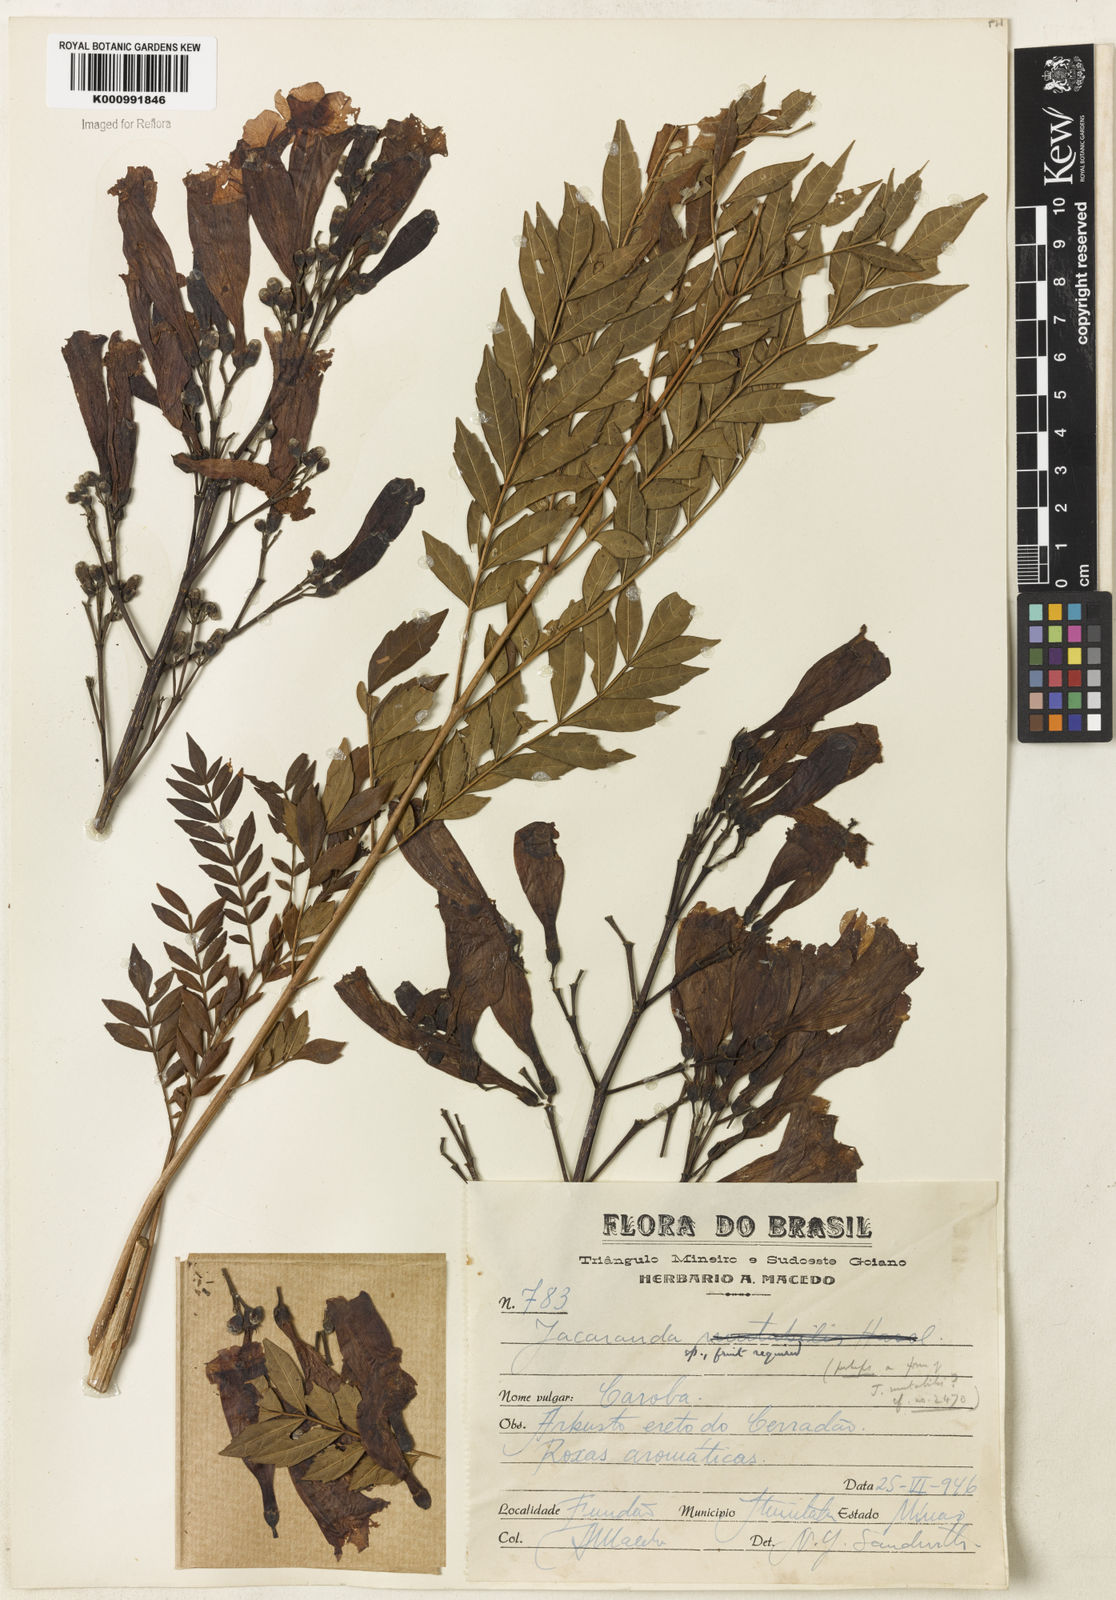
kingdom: Plantae
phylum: Tracheophyta
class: Magnoliopsida
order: Lamiales
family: Bignoniaceae
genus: Jacaranda
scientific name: Jacaranda mutabilis
